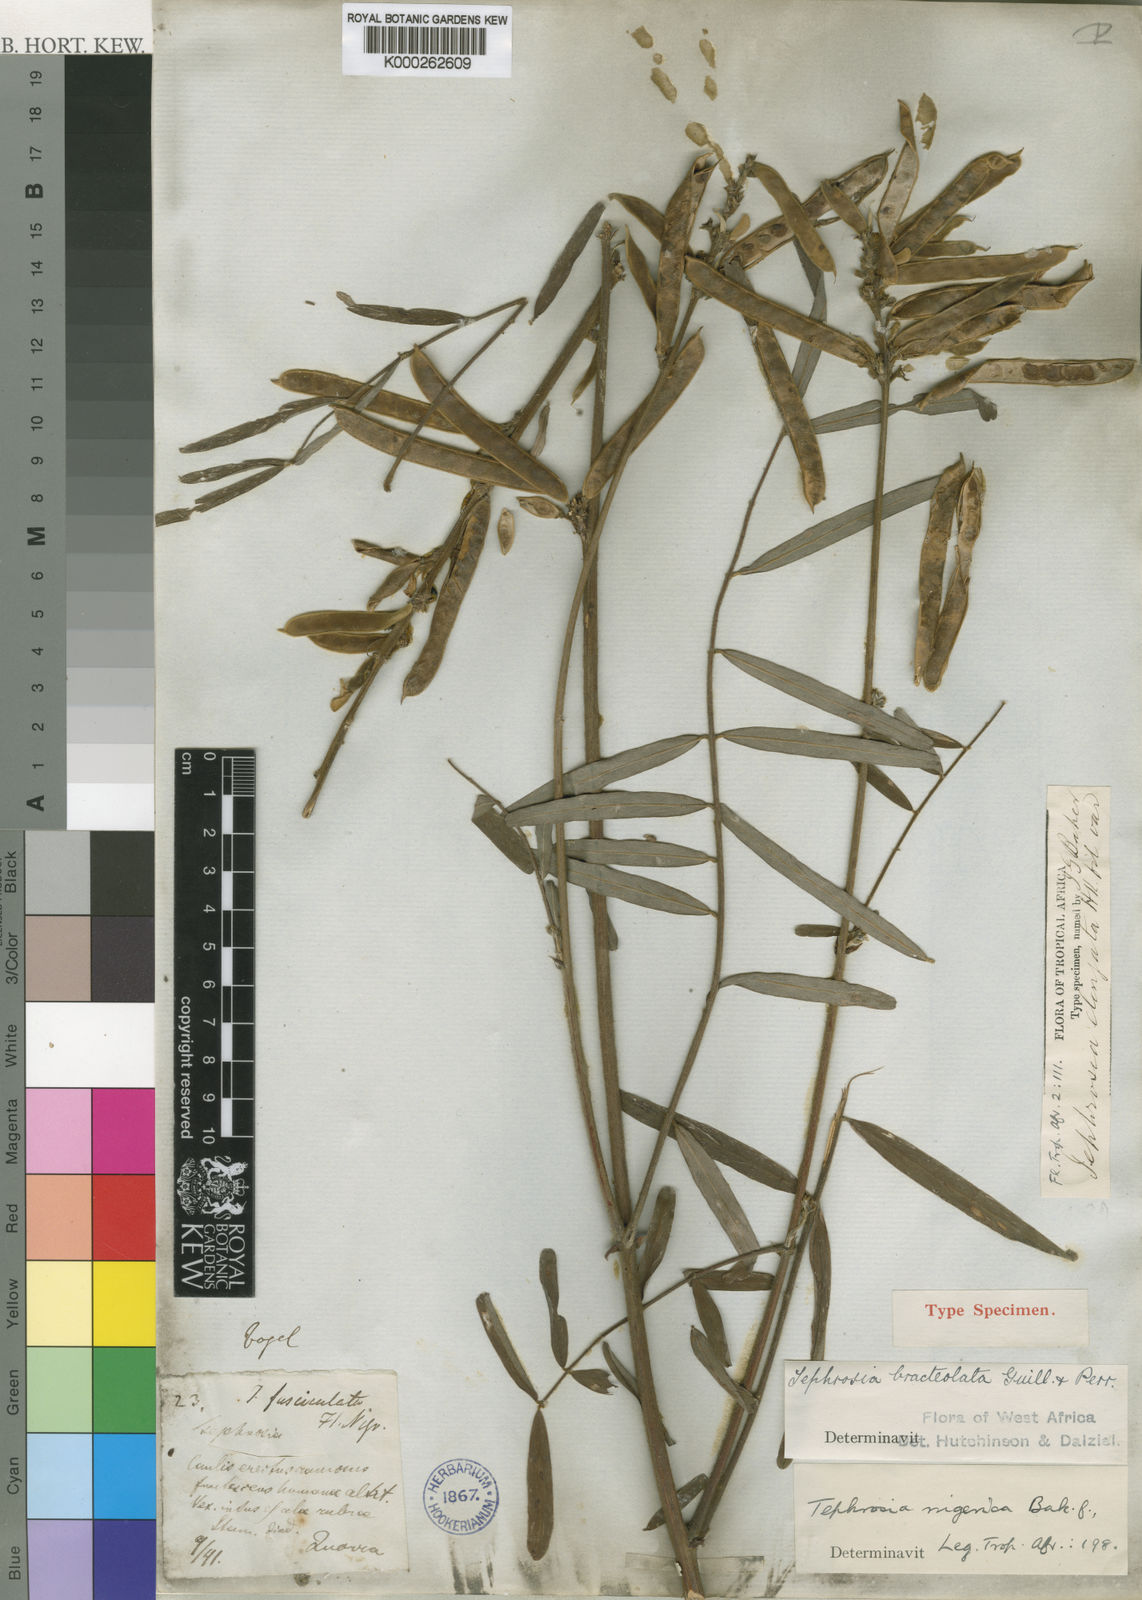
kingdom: Plantae
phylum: Tracheophyta
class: Magnoliopsida
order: Fabales
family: Fabaceae
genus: Tephrosia
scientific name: Tephrosia bracteolata
